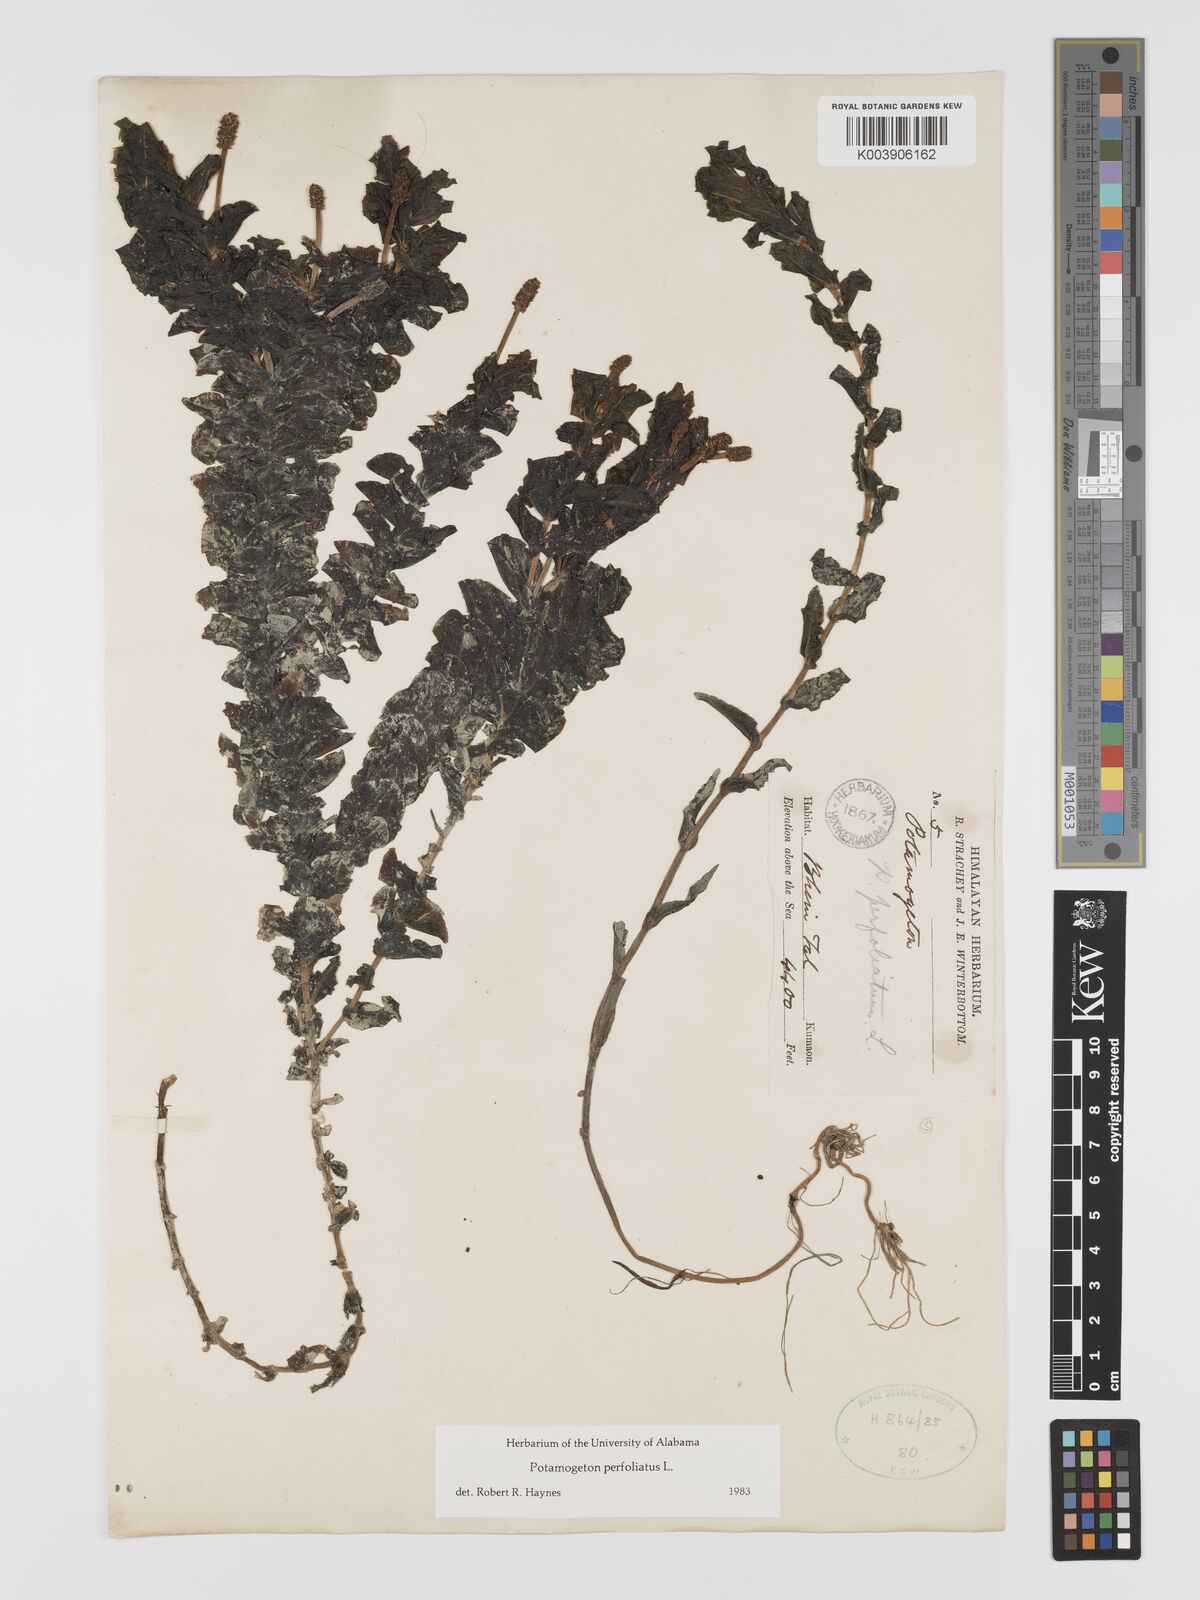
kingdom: Plantae
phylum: Tracheophyta
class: Liliopsida
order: Alismatales
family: Potamogetonaceae
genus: Stuckenia
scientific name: Stuckenia pectinata
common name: Sago pondweed
